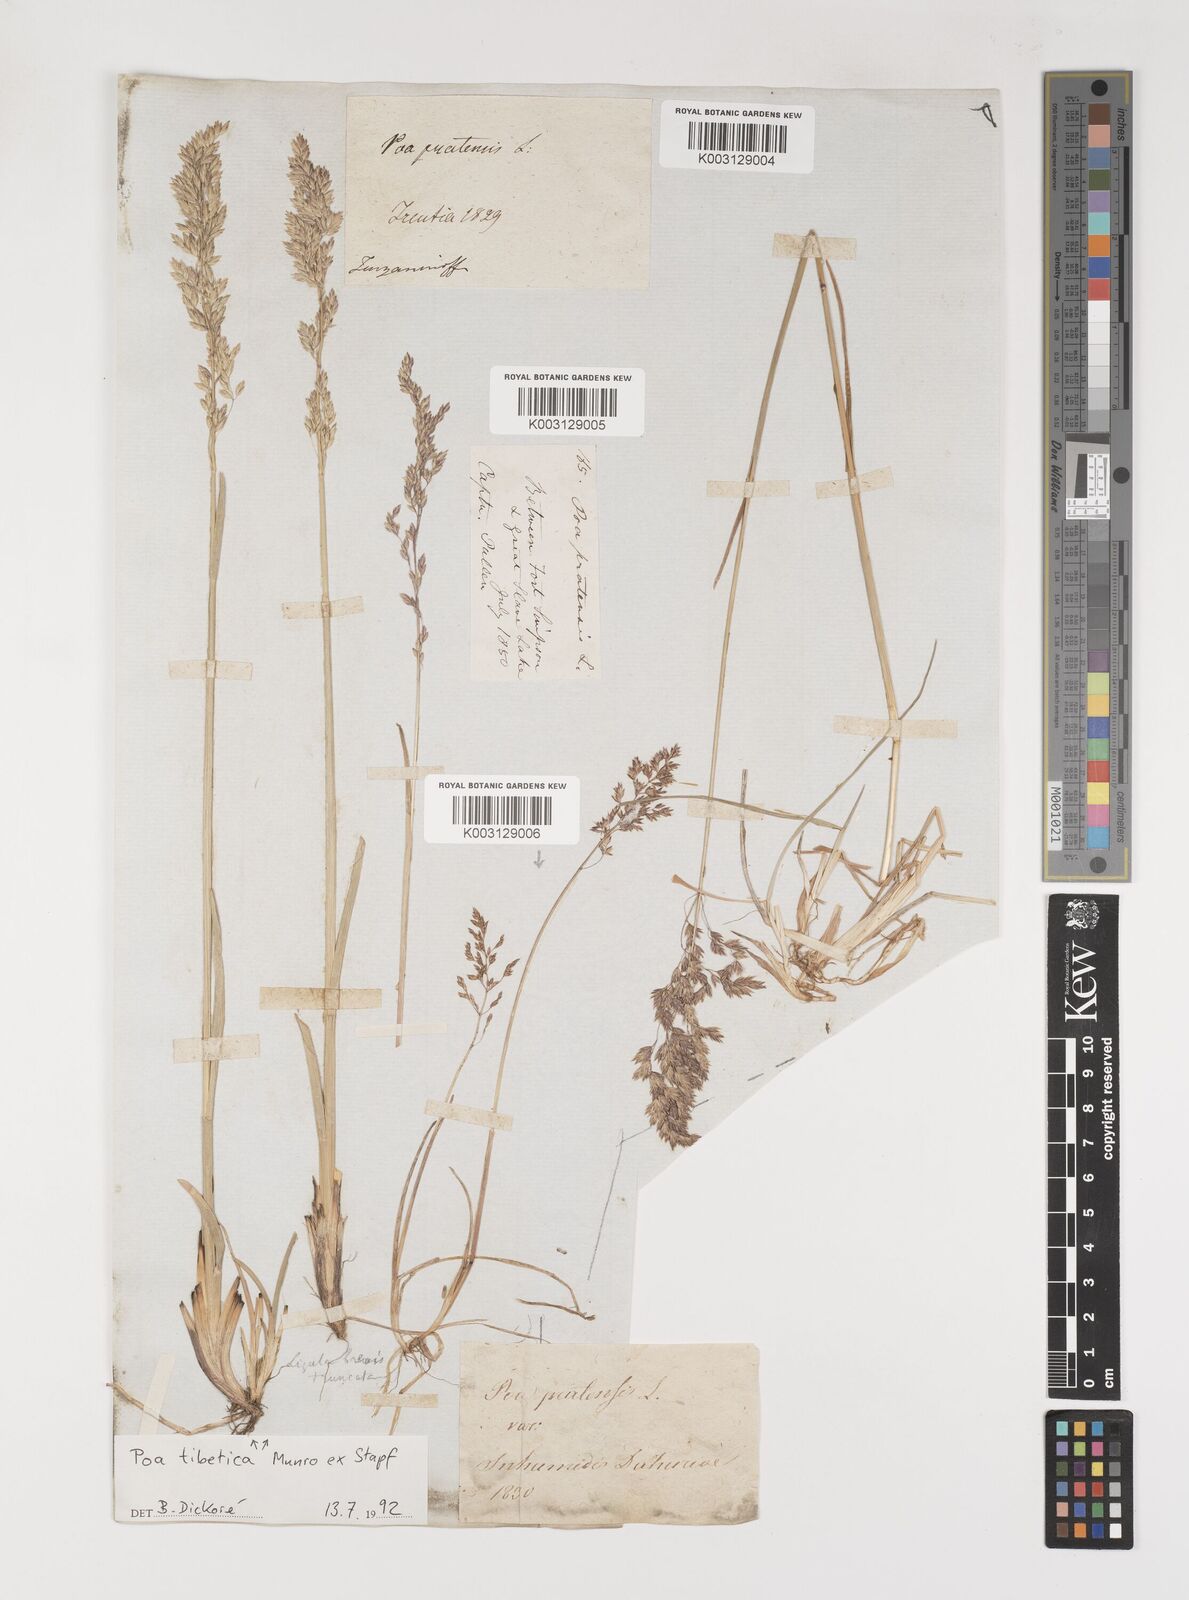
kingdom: Plantae
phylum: Tracheophyta
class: Liliopsida
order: Poales
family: Poaceae
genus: Arctopoa
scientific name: Arctopoa tibetica
